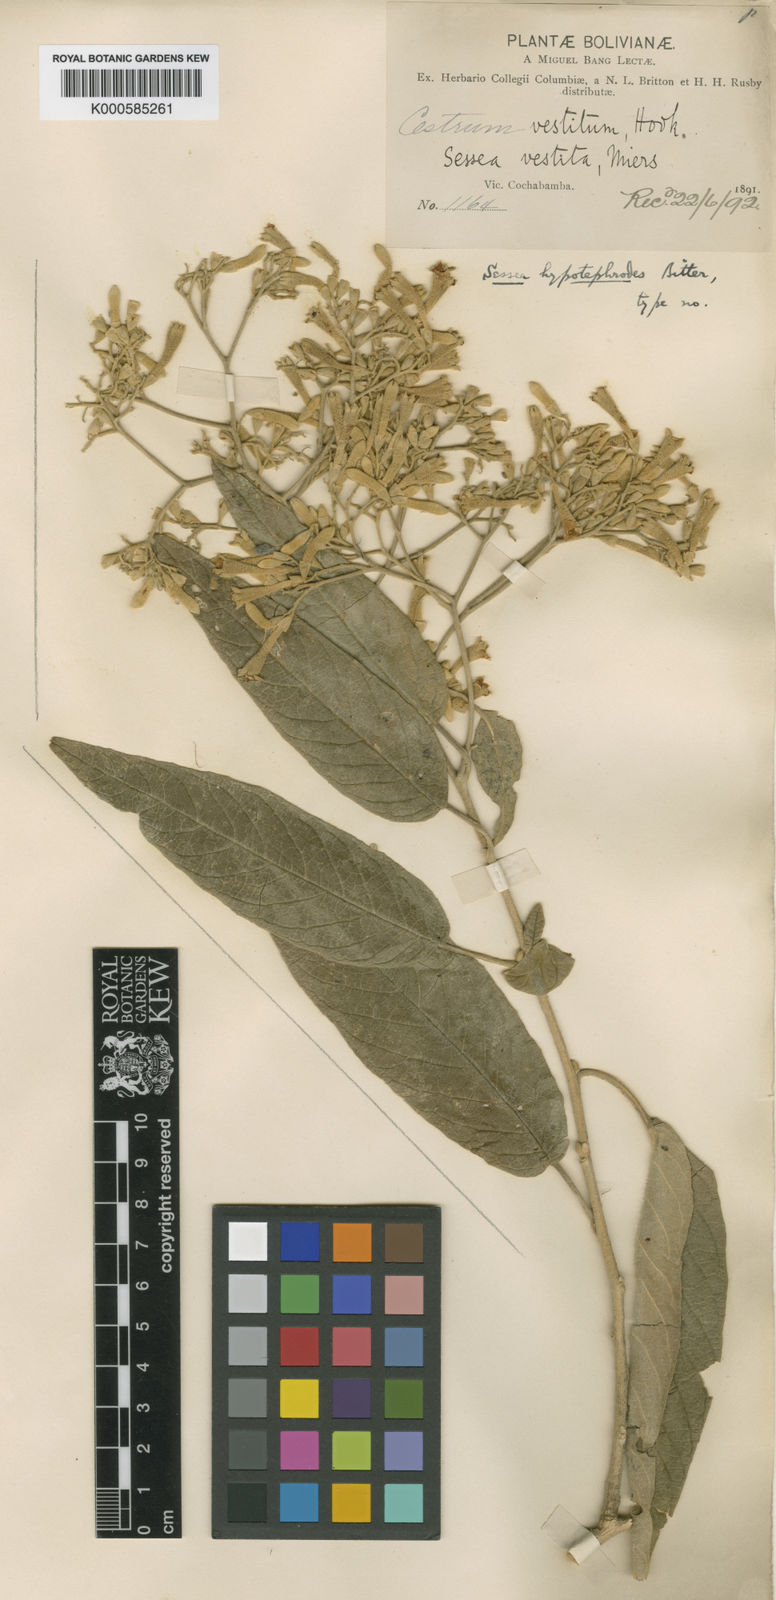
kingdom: Plantae
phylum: Tracheophyta
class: Magnoliopsida
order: Solanales
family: Solanaceae
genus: Sessea
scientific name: Sessea herzogii
